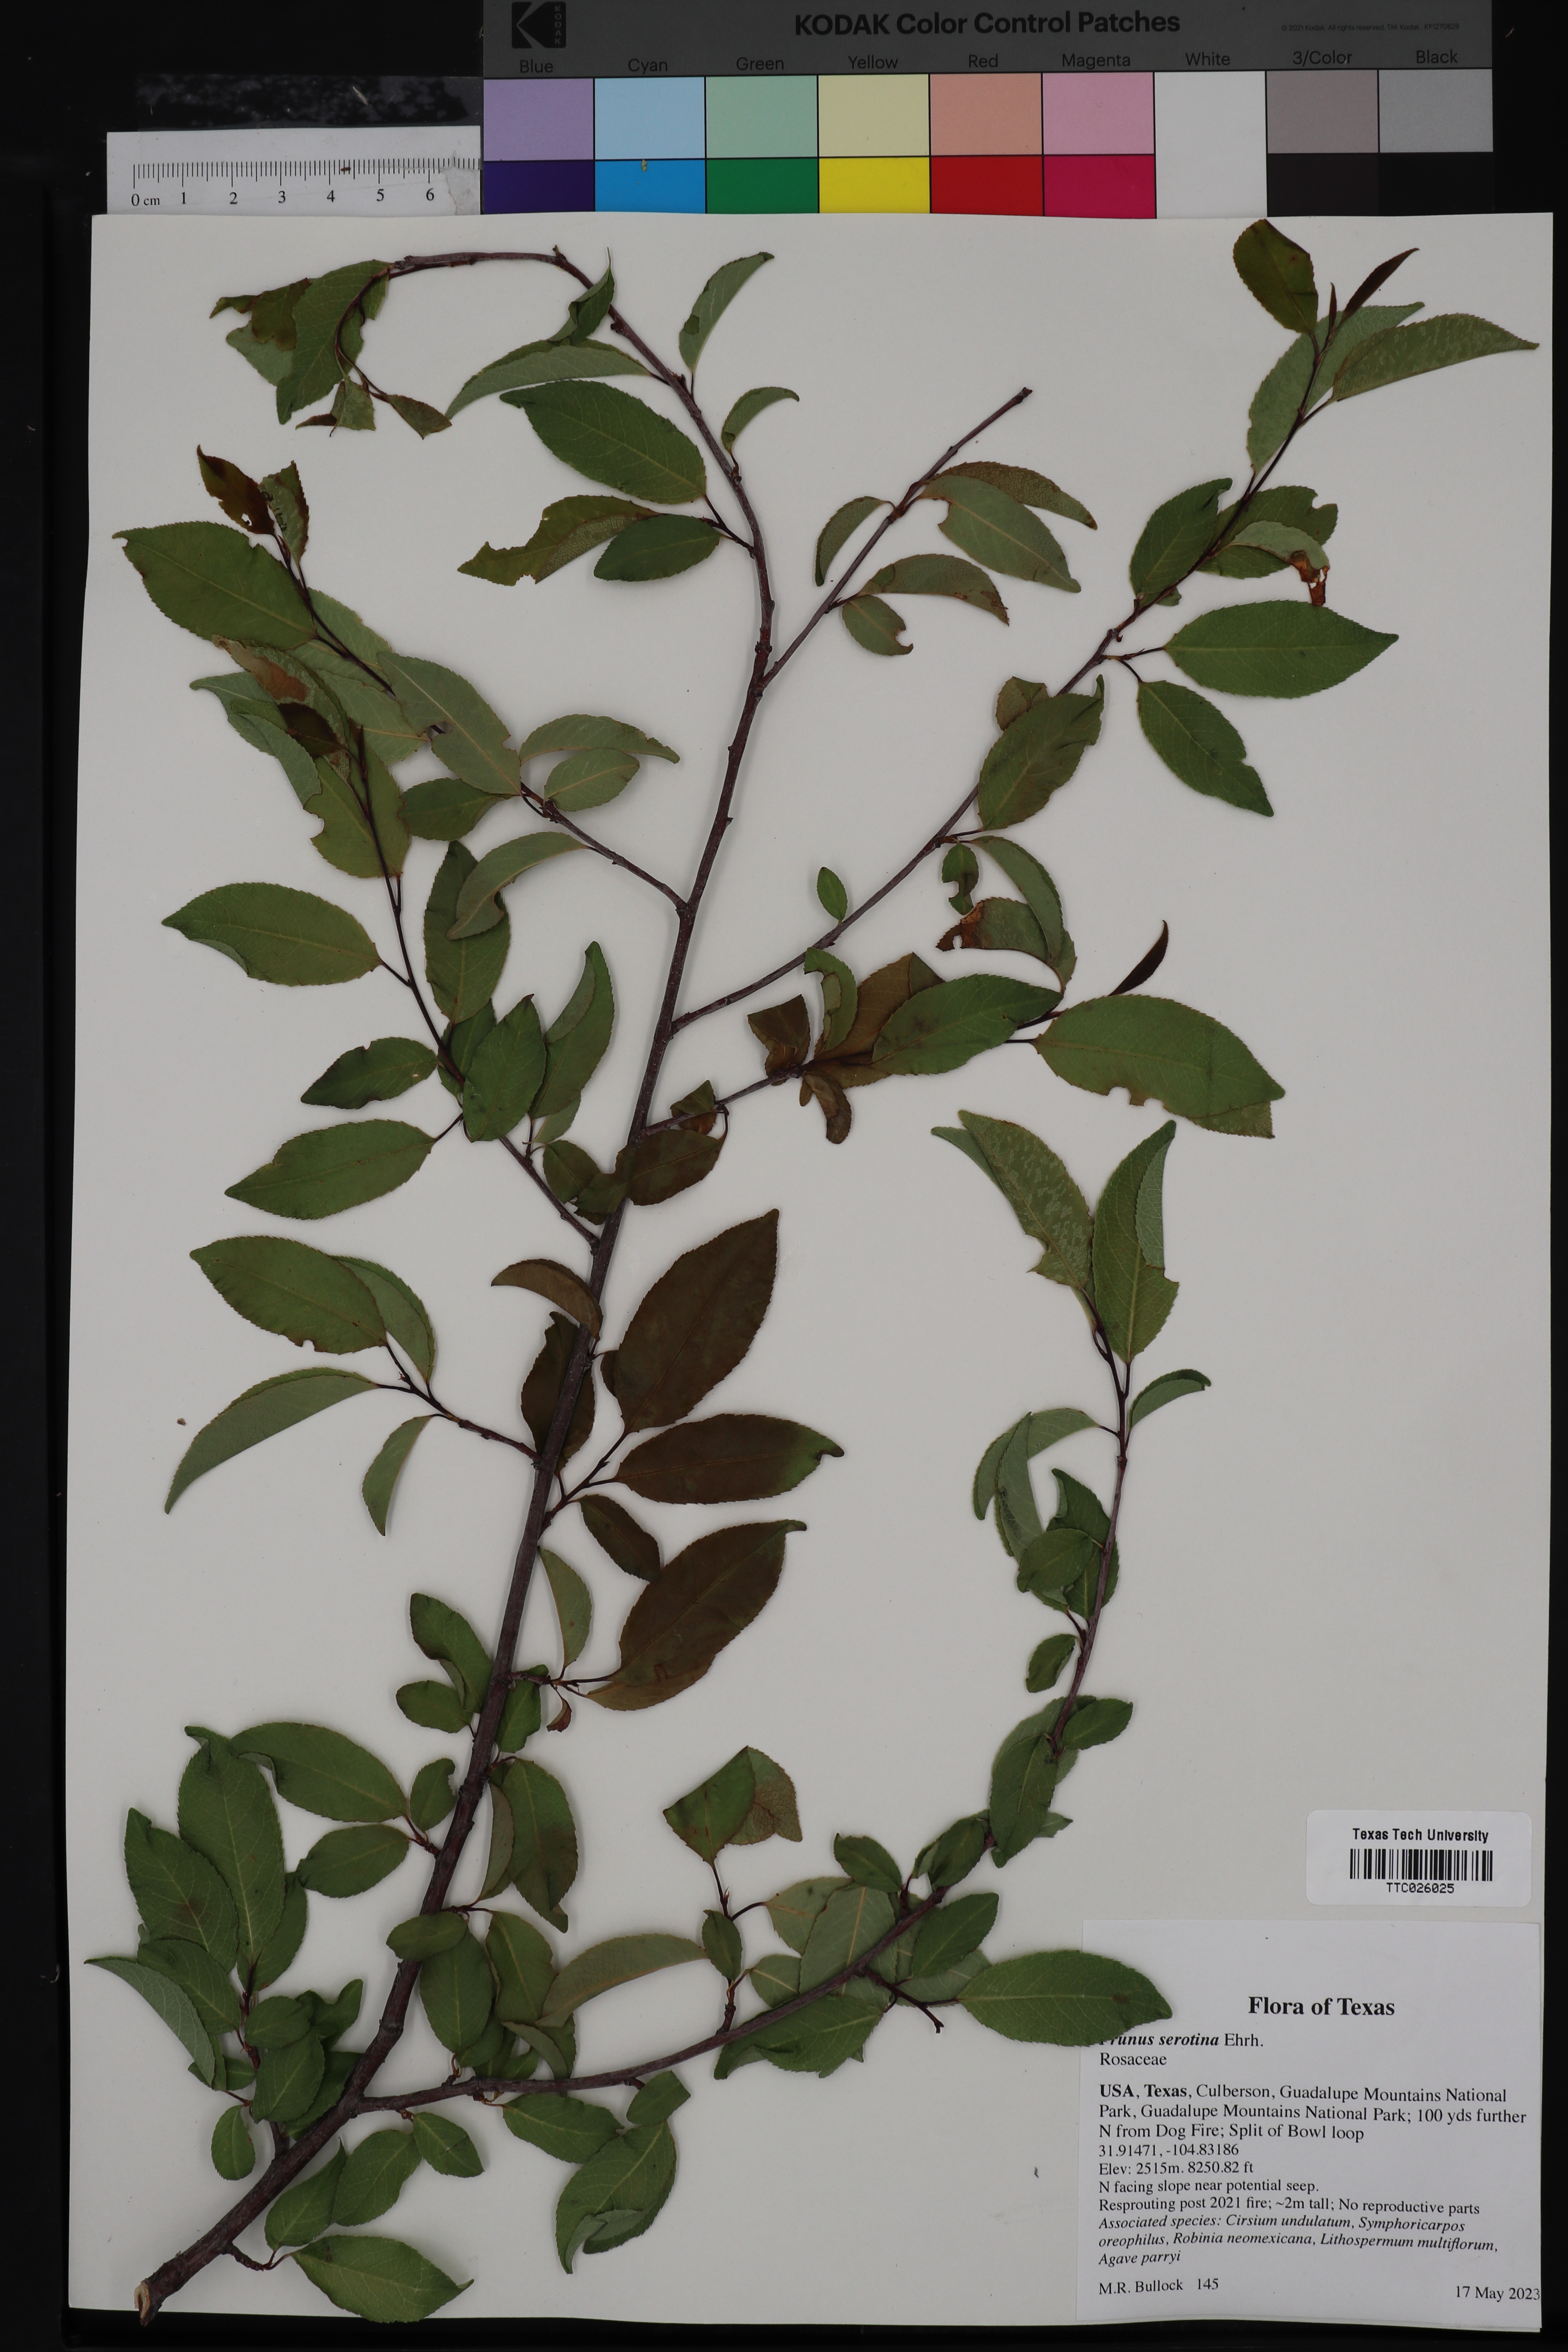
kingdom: Plantae
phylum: Tracheophyta
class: Magnoliopsida
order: Rosales
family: Rosaceae
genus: Prunus
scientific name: Prunus serotina
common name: Black cherry
